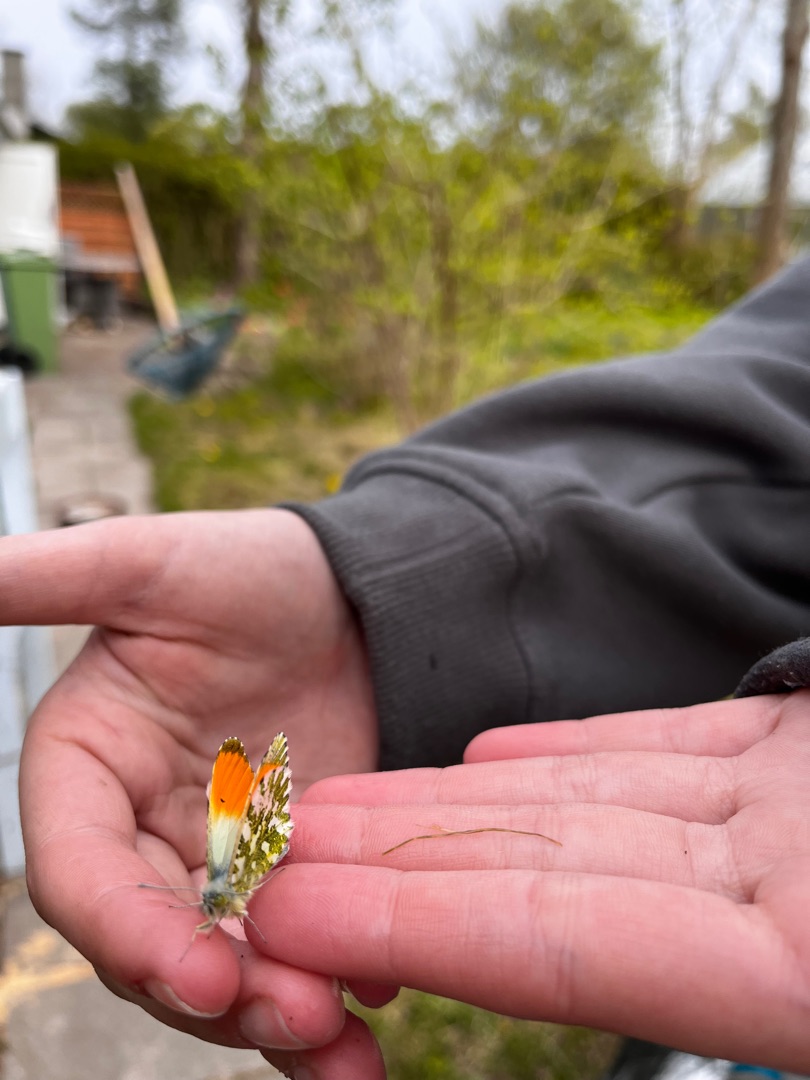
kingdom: Animalia
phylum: Arthropoda
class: Insecta
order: Lepidoptera
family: Pieridae
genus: Anthocharis
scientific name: Anthocharis cardamines
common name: Aurora
